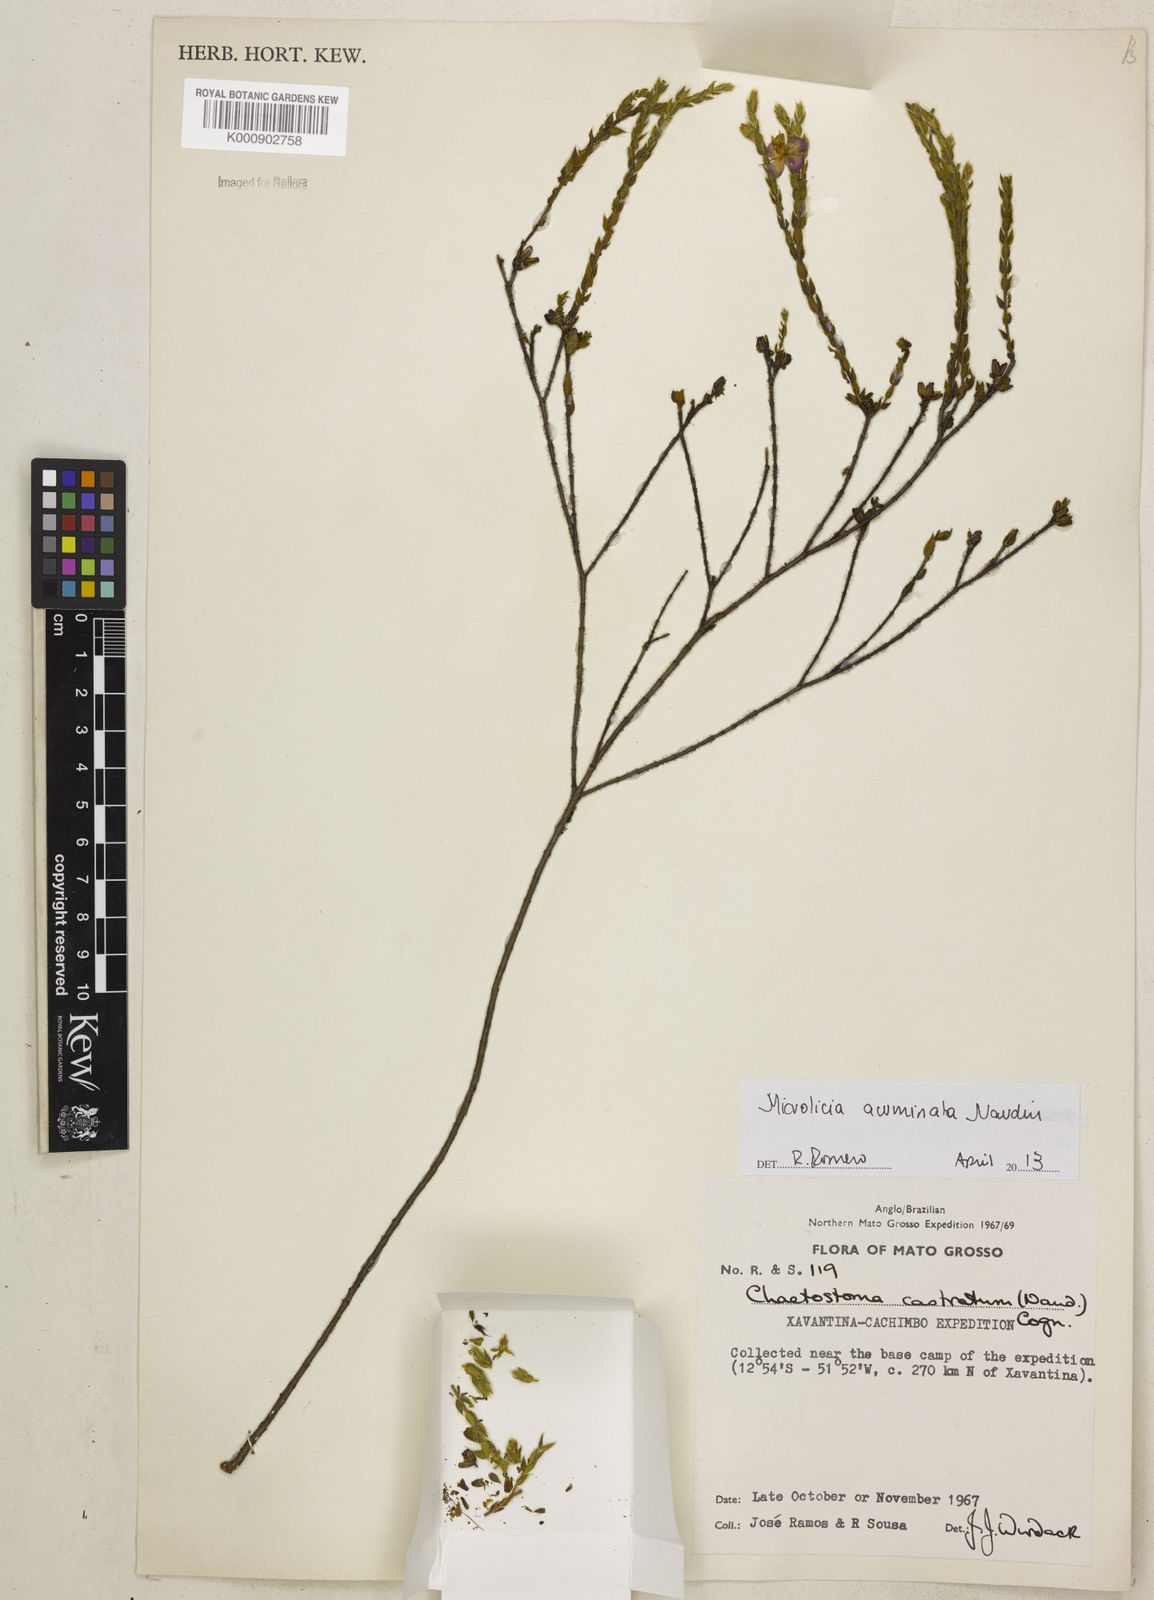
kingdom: Plantae
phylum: Tracheophyta
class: Magnoliopsida
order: Myrtales
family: Melastomataceae
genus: Microlicia
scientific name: Microlicia hirticalyx
